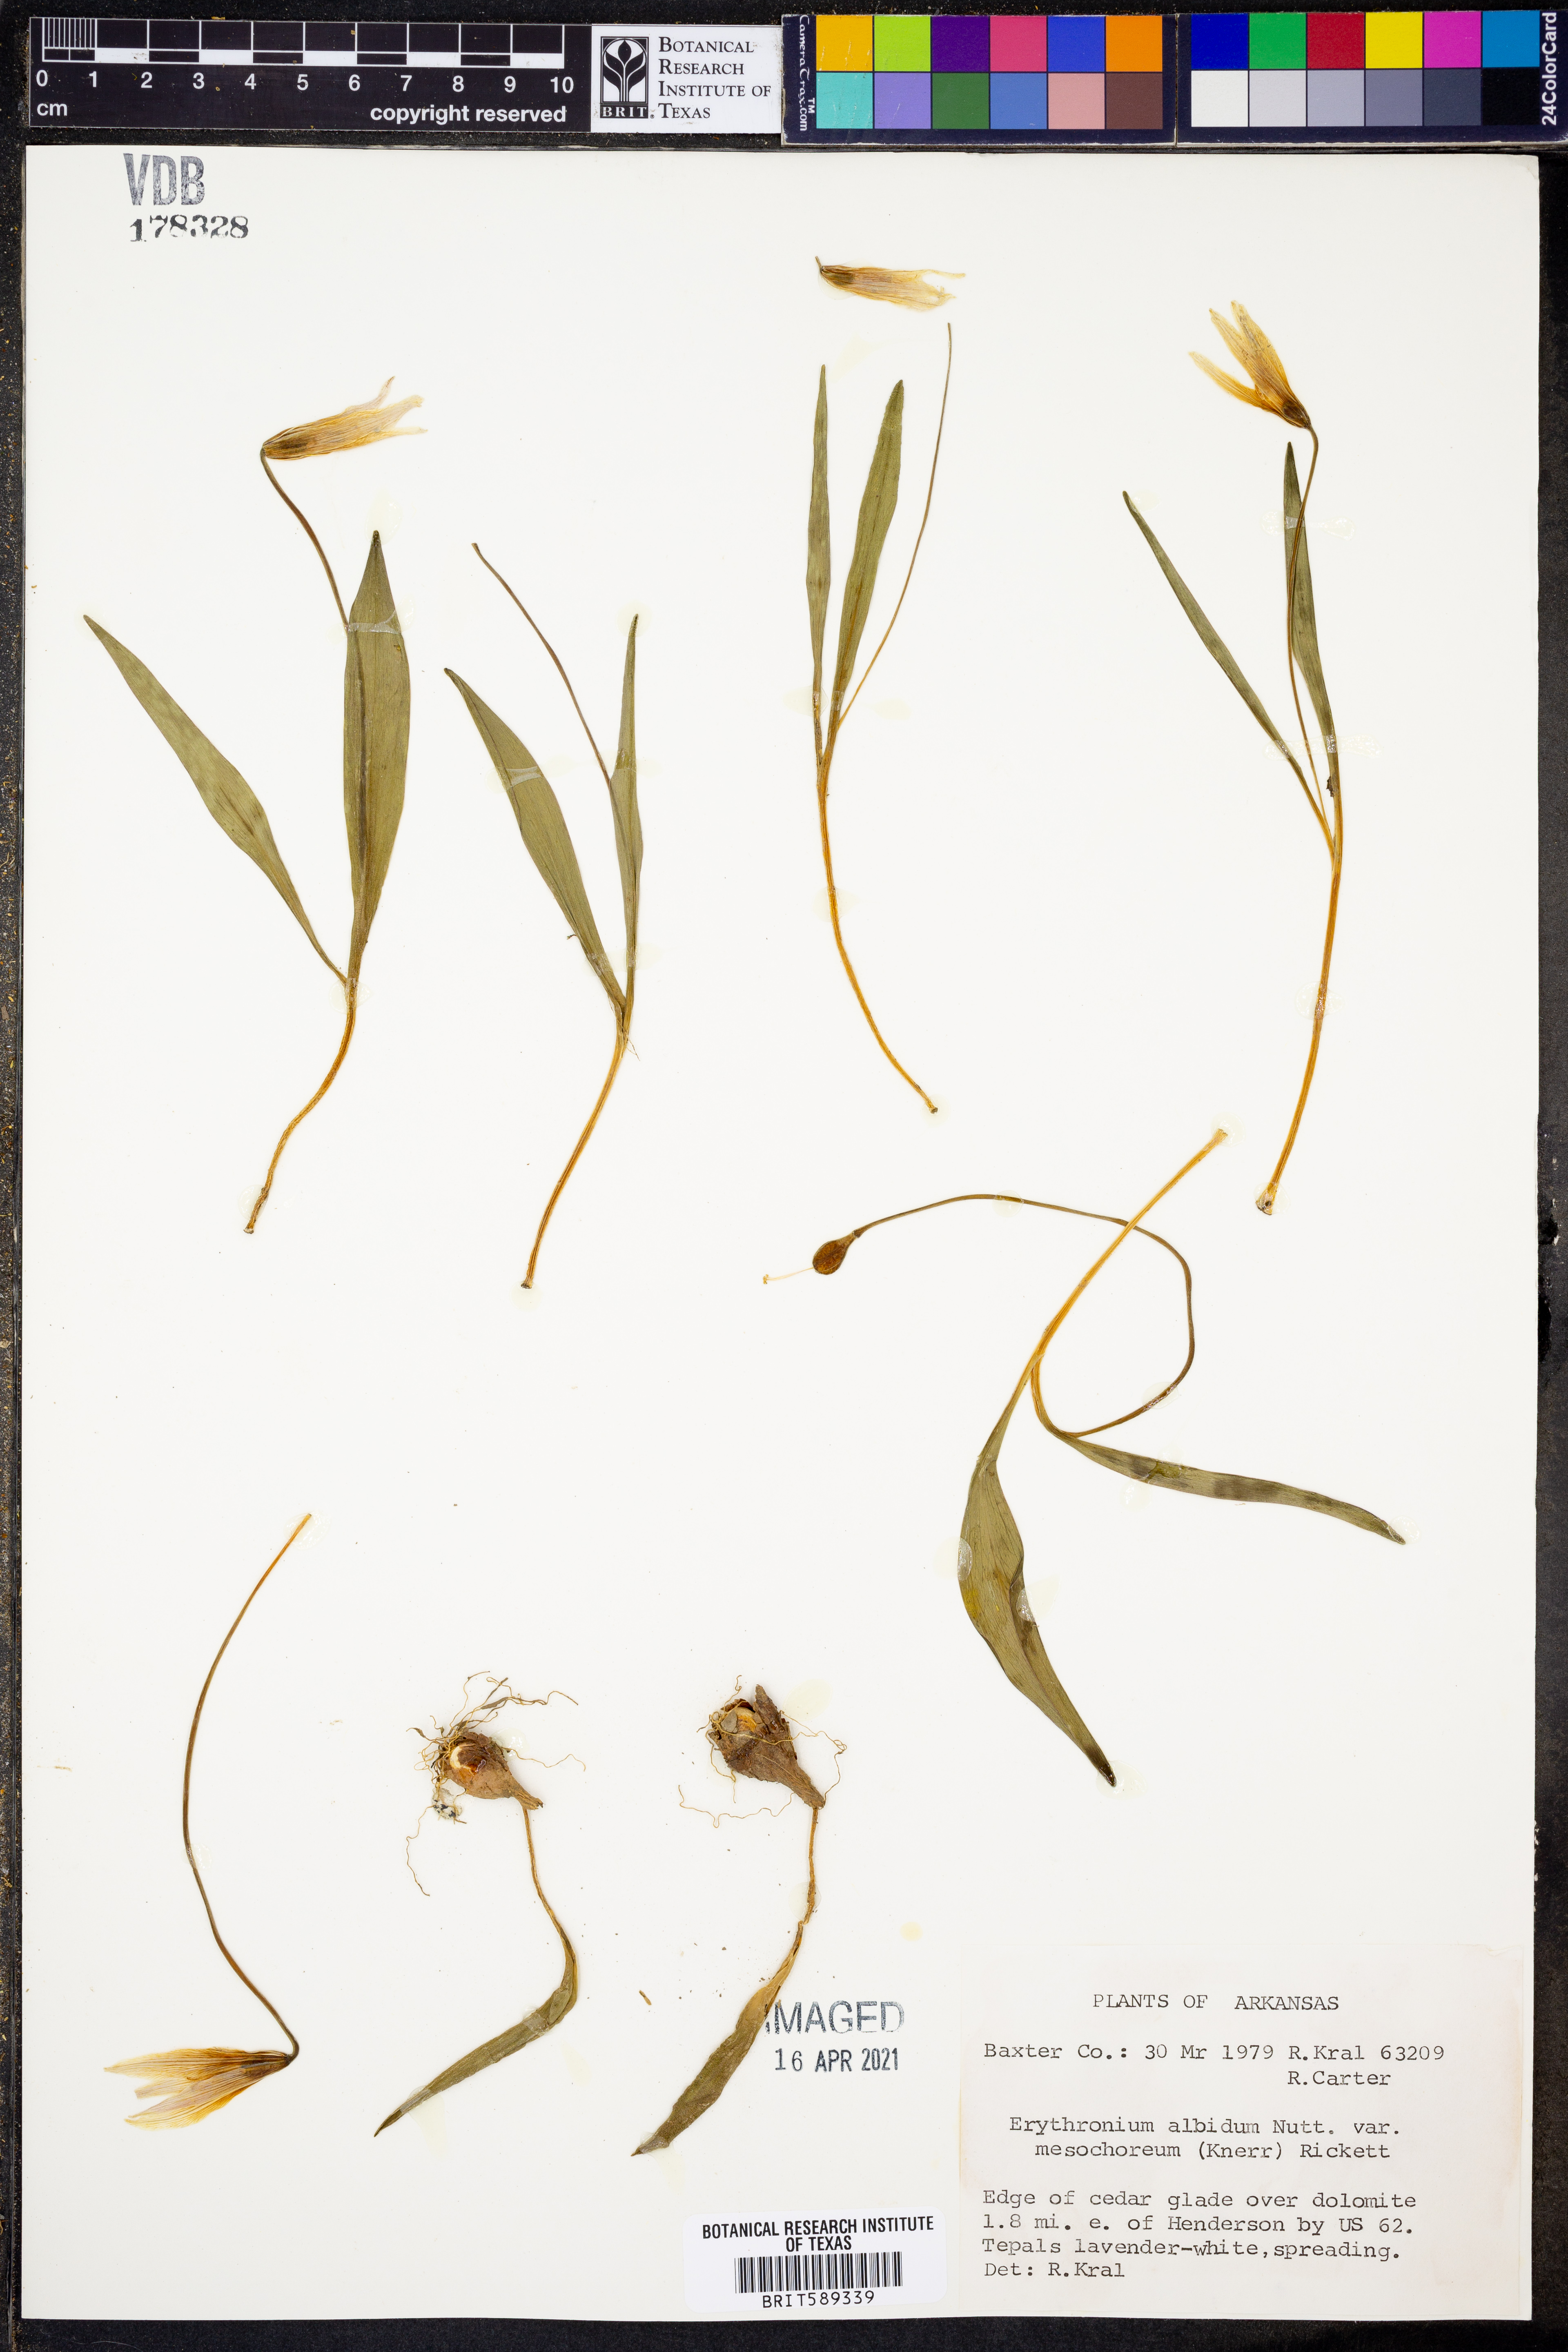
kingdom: Plantae
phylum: Tracheophyta
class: Liliopsida
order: Liliales
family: Liliaceae
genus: Erythronium
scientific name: Erythronium mesochoreum
